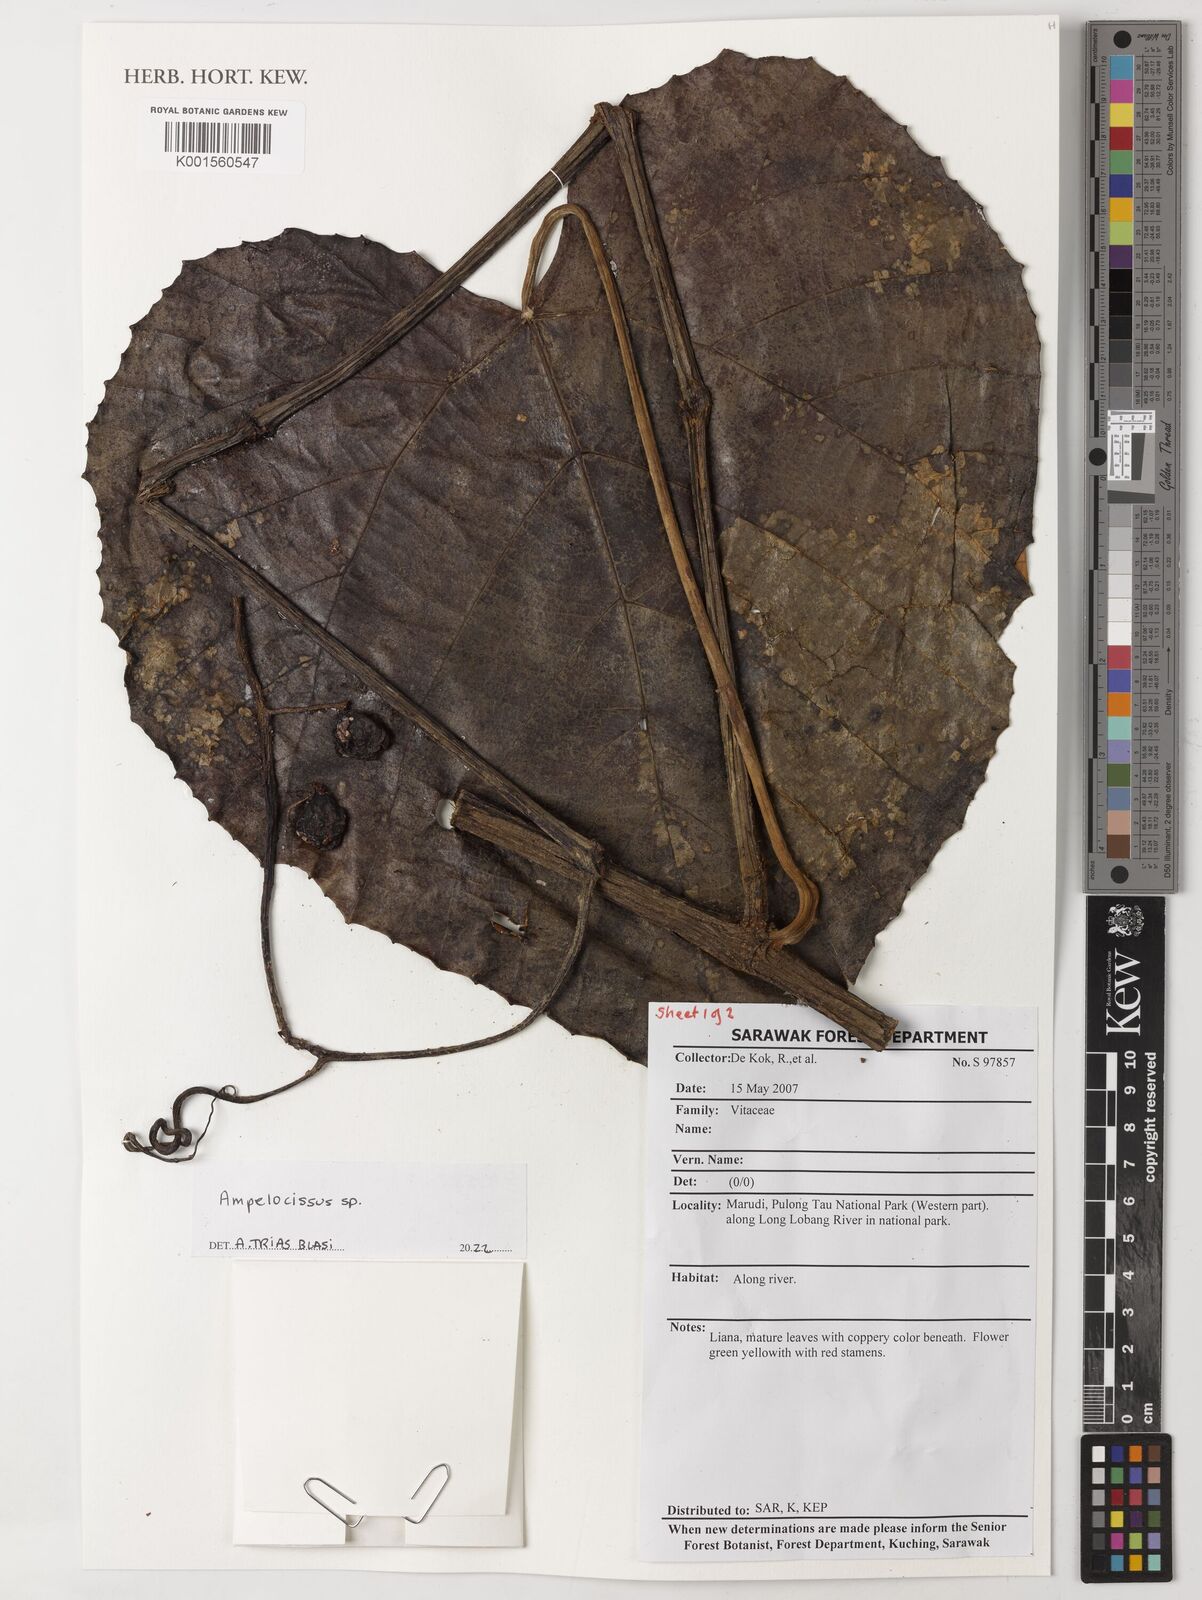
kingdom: Plantae
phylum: Tracheophyta
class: Magnoliopsida
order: Vitales
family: Vitaceae
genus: Ampelocissus
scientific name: Ampelocissus
